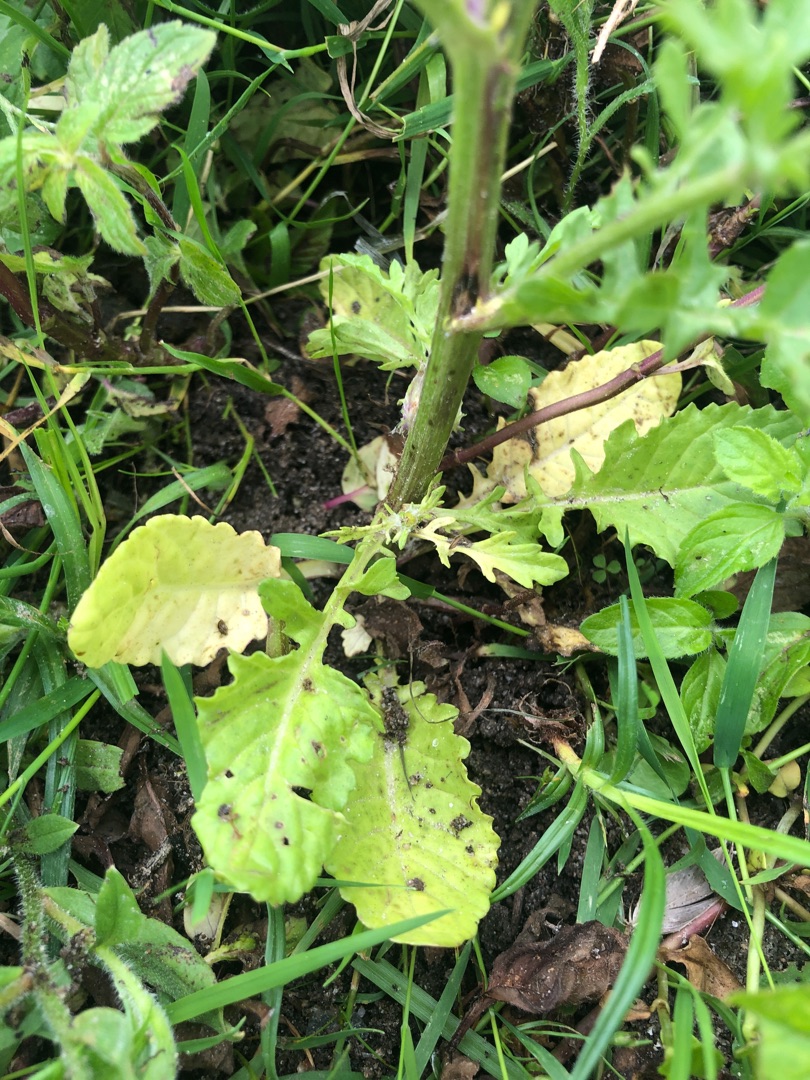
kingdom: Plantae
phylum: Tracheophyta
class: Magnoliopsida
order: Asterales
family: Asteraceae
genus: Jacobaea
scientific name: Jacobaea aquatica
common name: Vand-brandbæger
